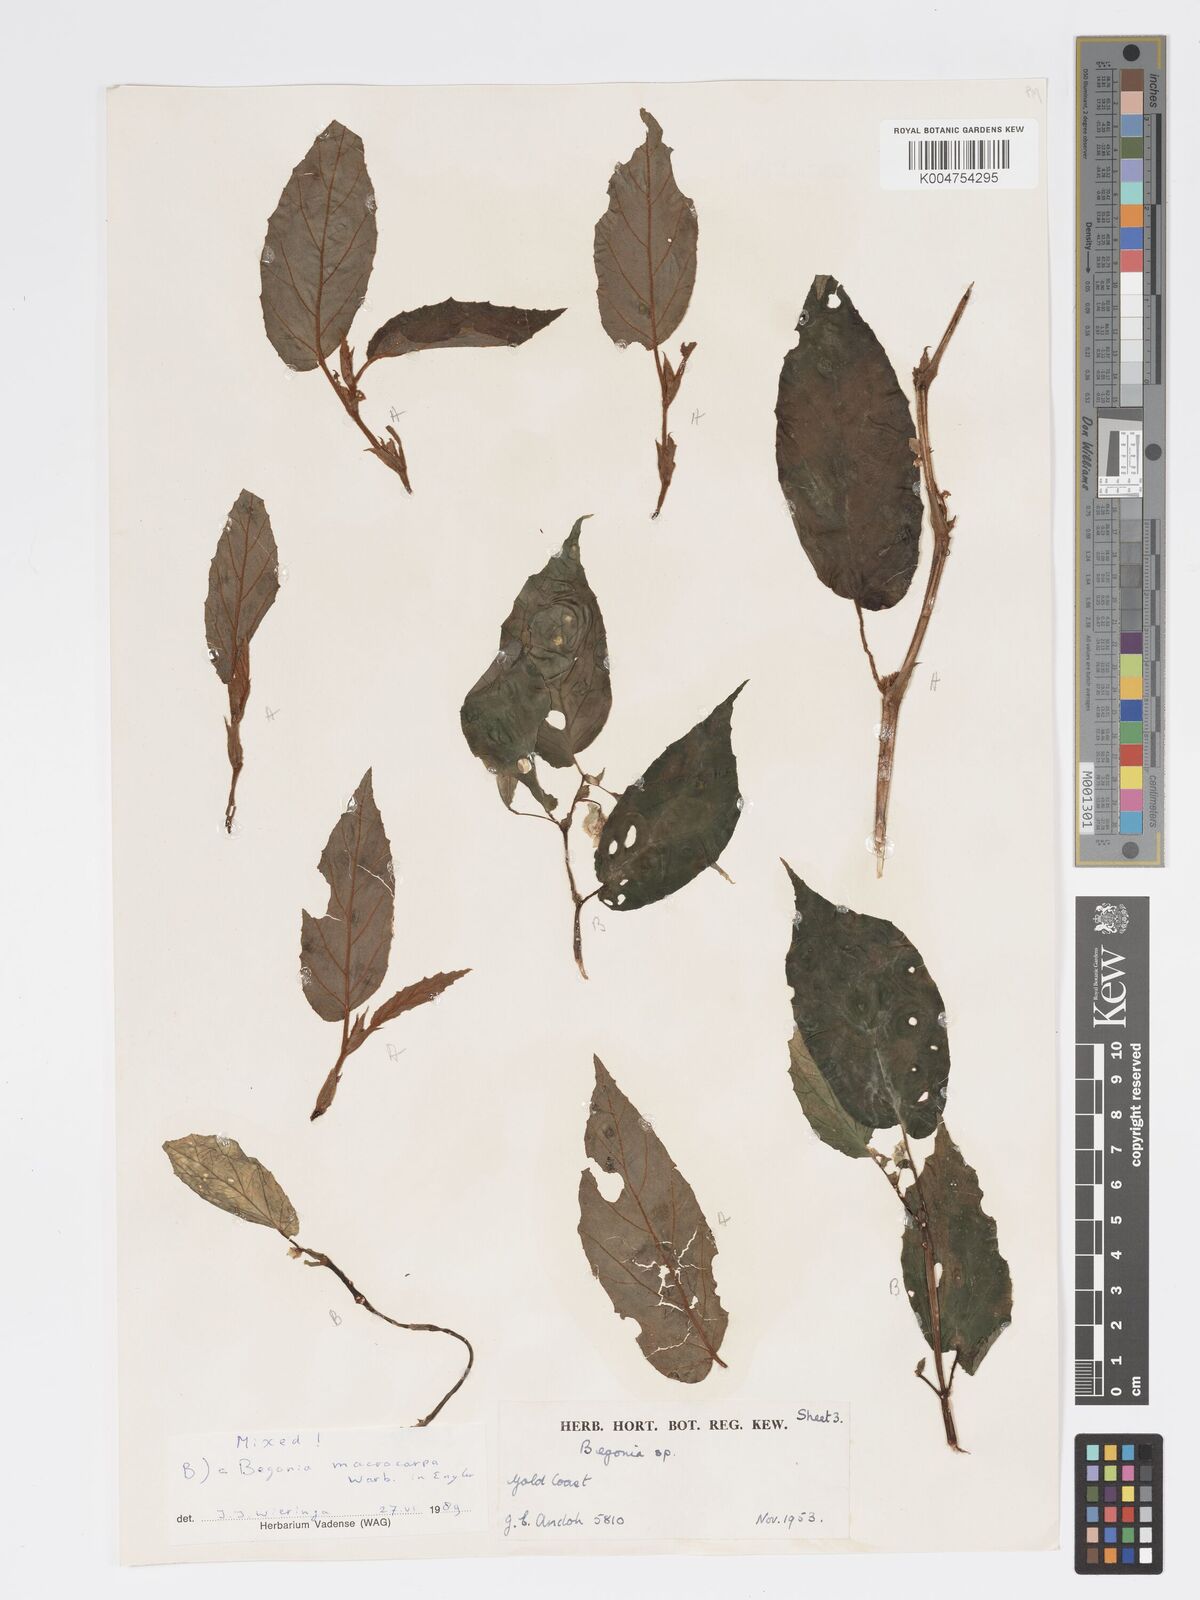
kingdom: Plantae
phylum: Tracheophyta
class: Magnoliopsida
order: Cucurbitales
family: Begoniaceae
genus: Begonia
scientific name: Begonia macrocarpa
